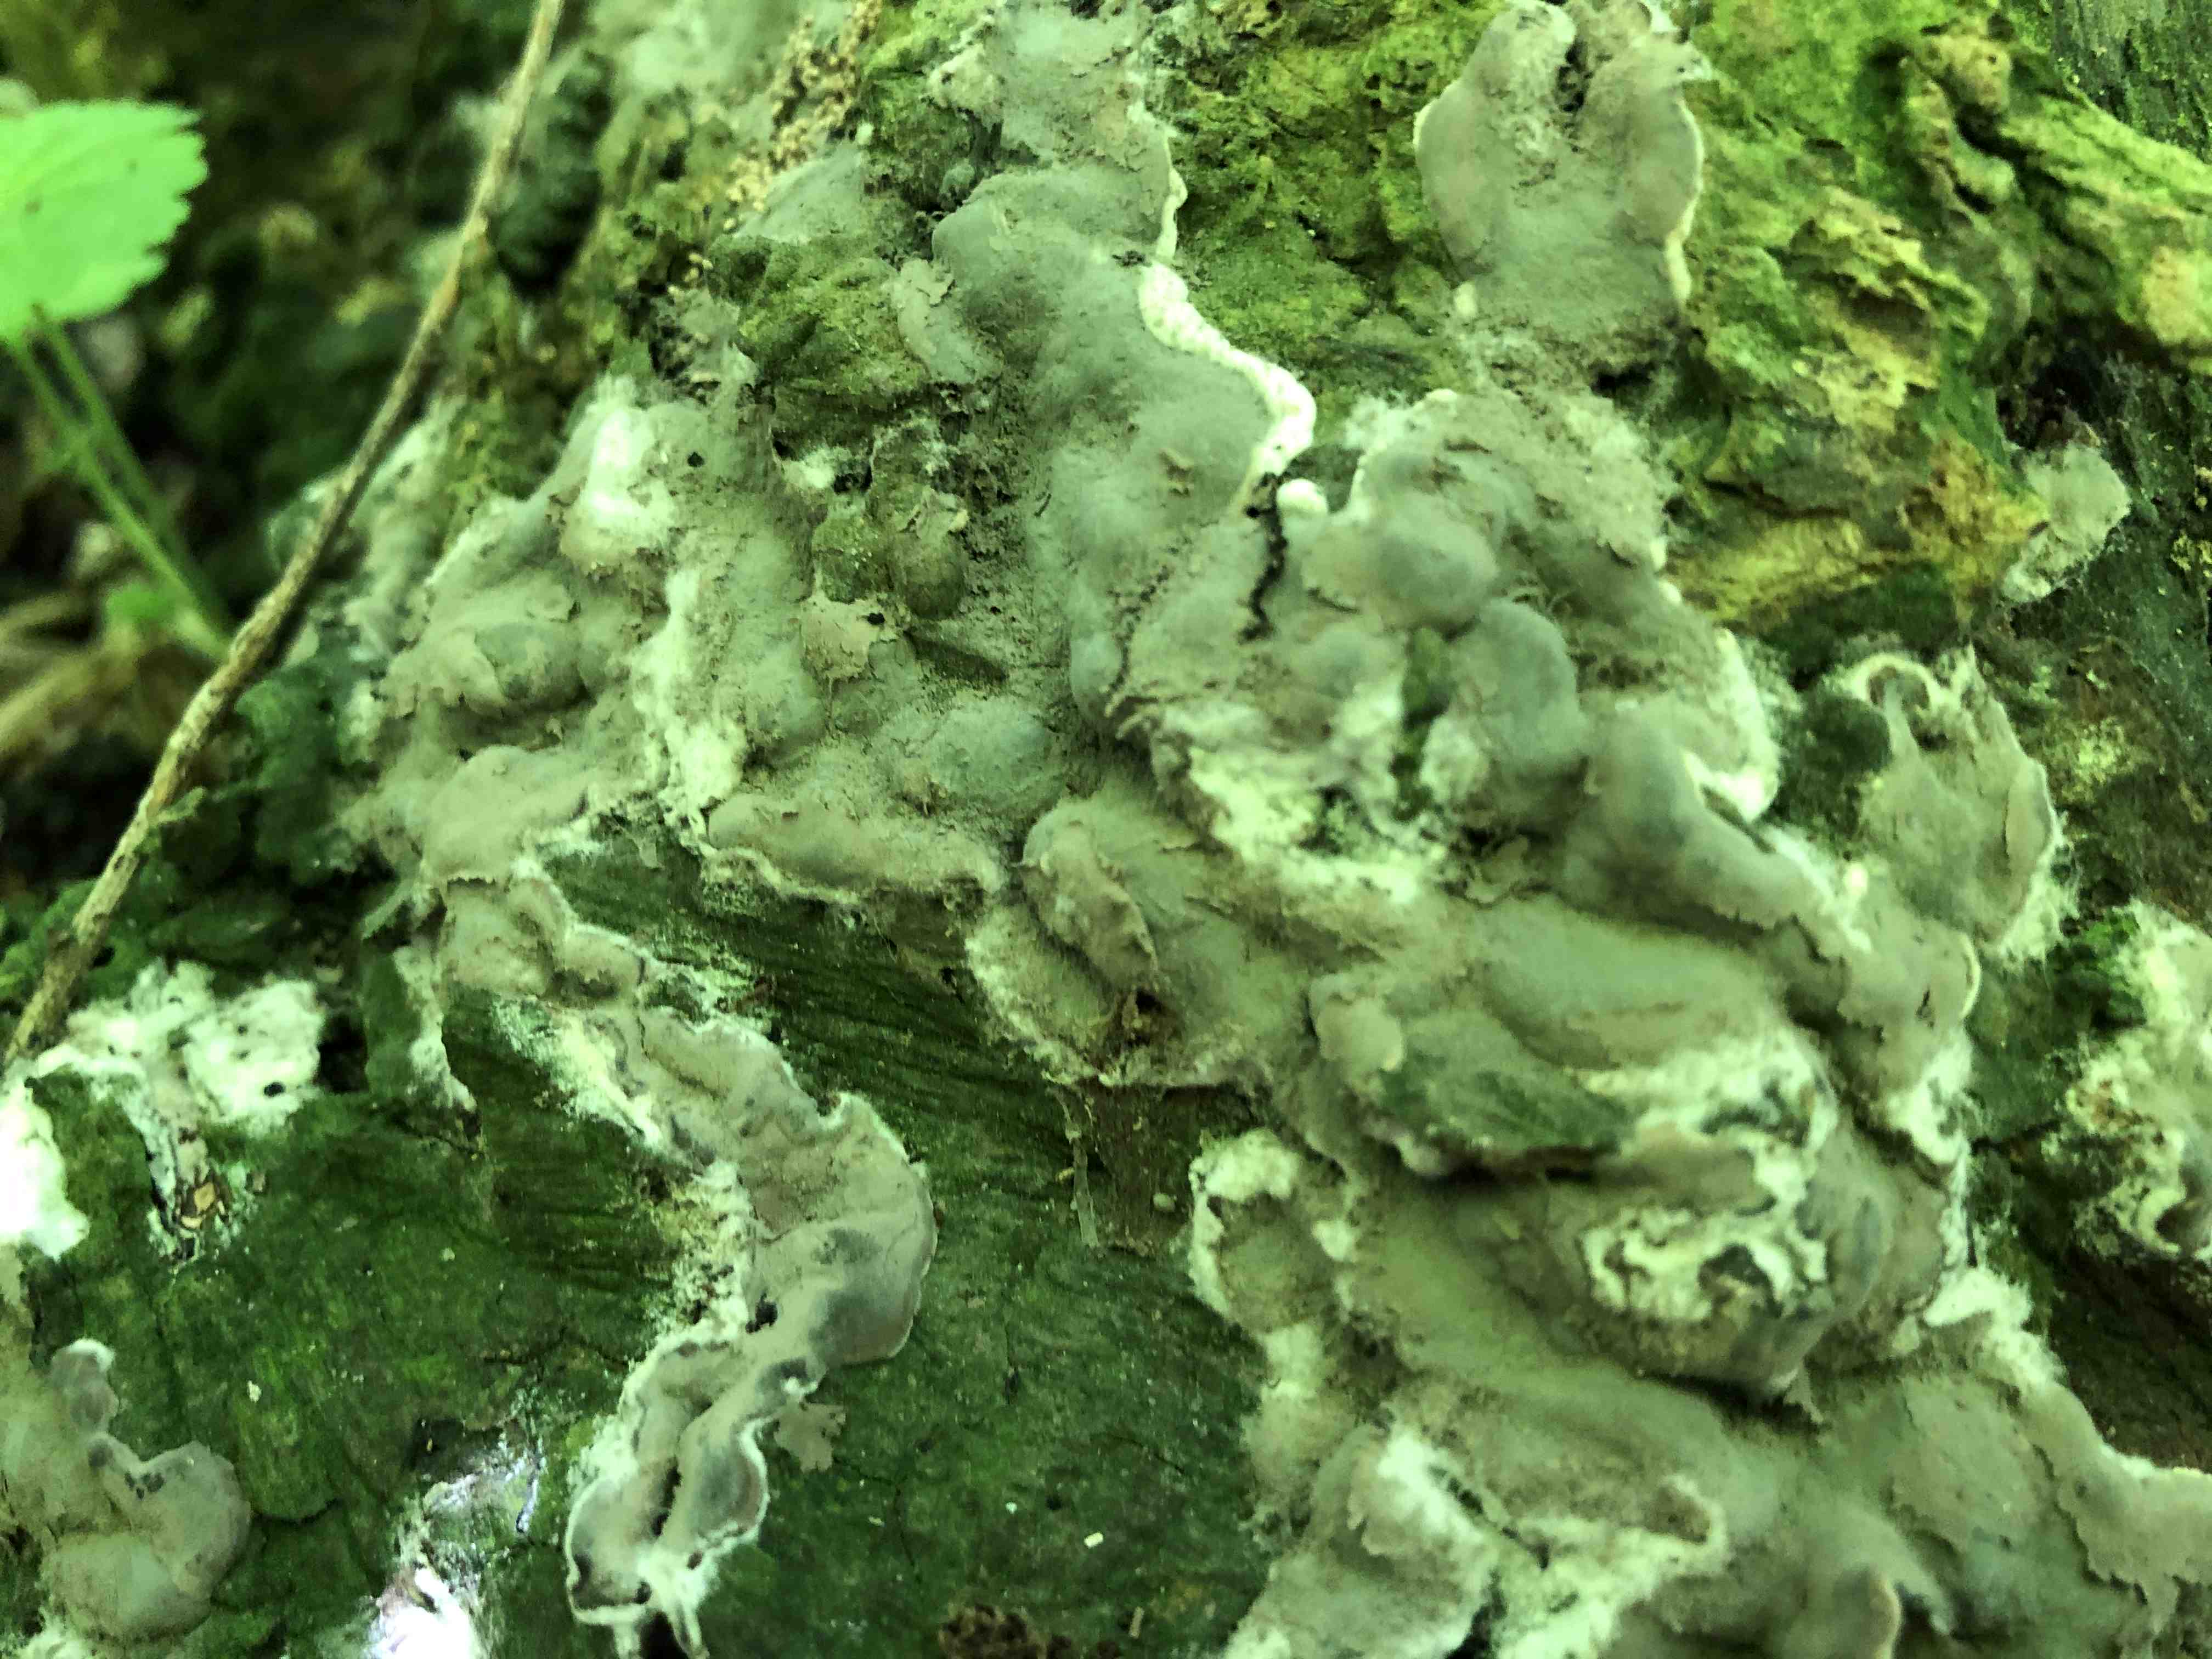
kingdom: Fungi
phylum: Ascomycota
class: Sordariomycetes
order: Xylariales
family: Xylariaceae
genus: Kretzschmaria
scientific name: Kretzschmaria deusta
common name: stor kulsvamp
